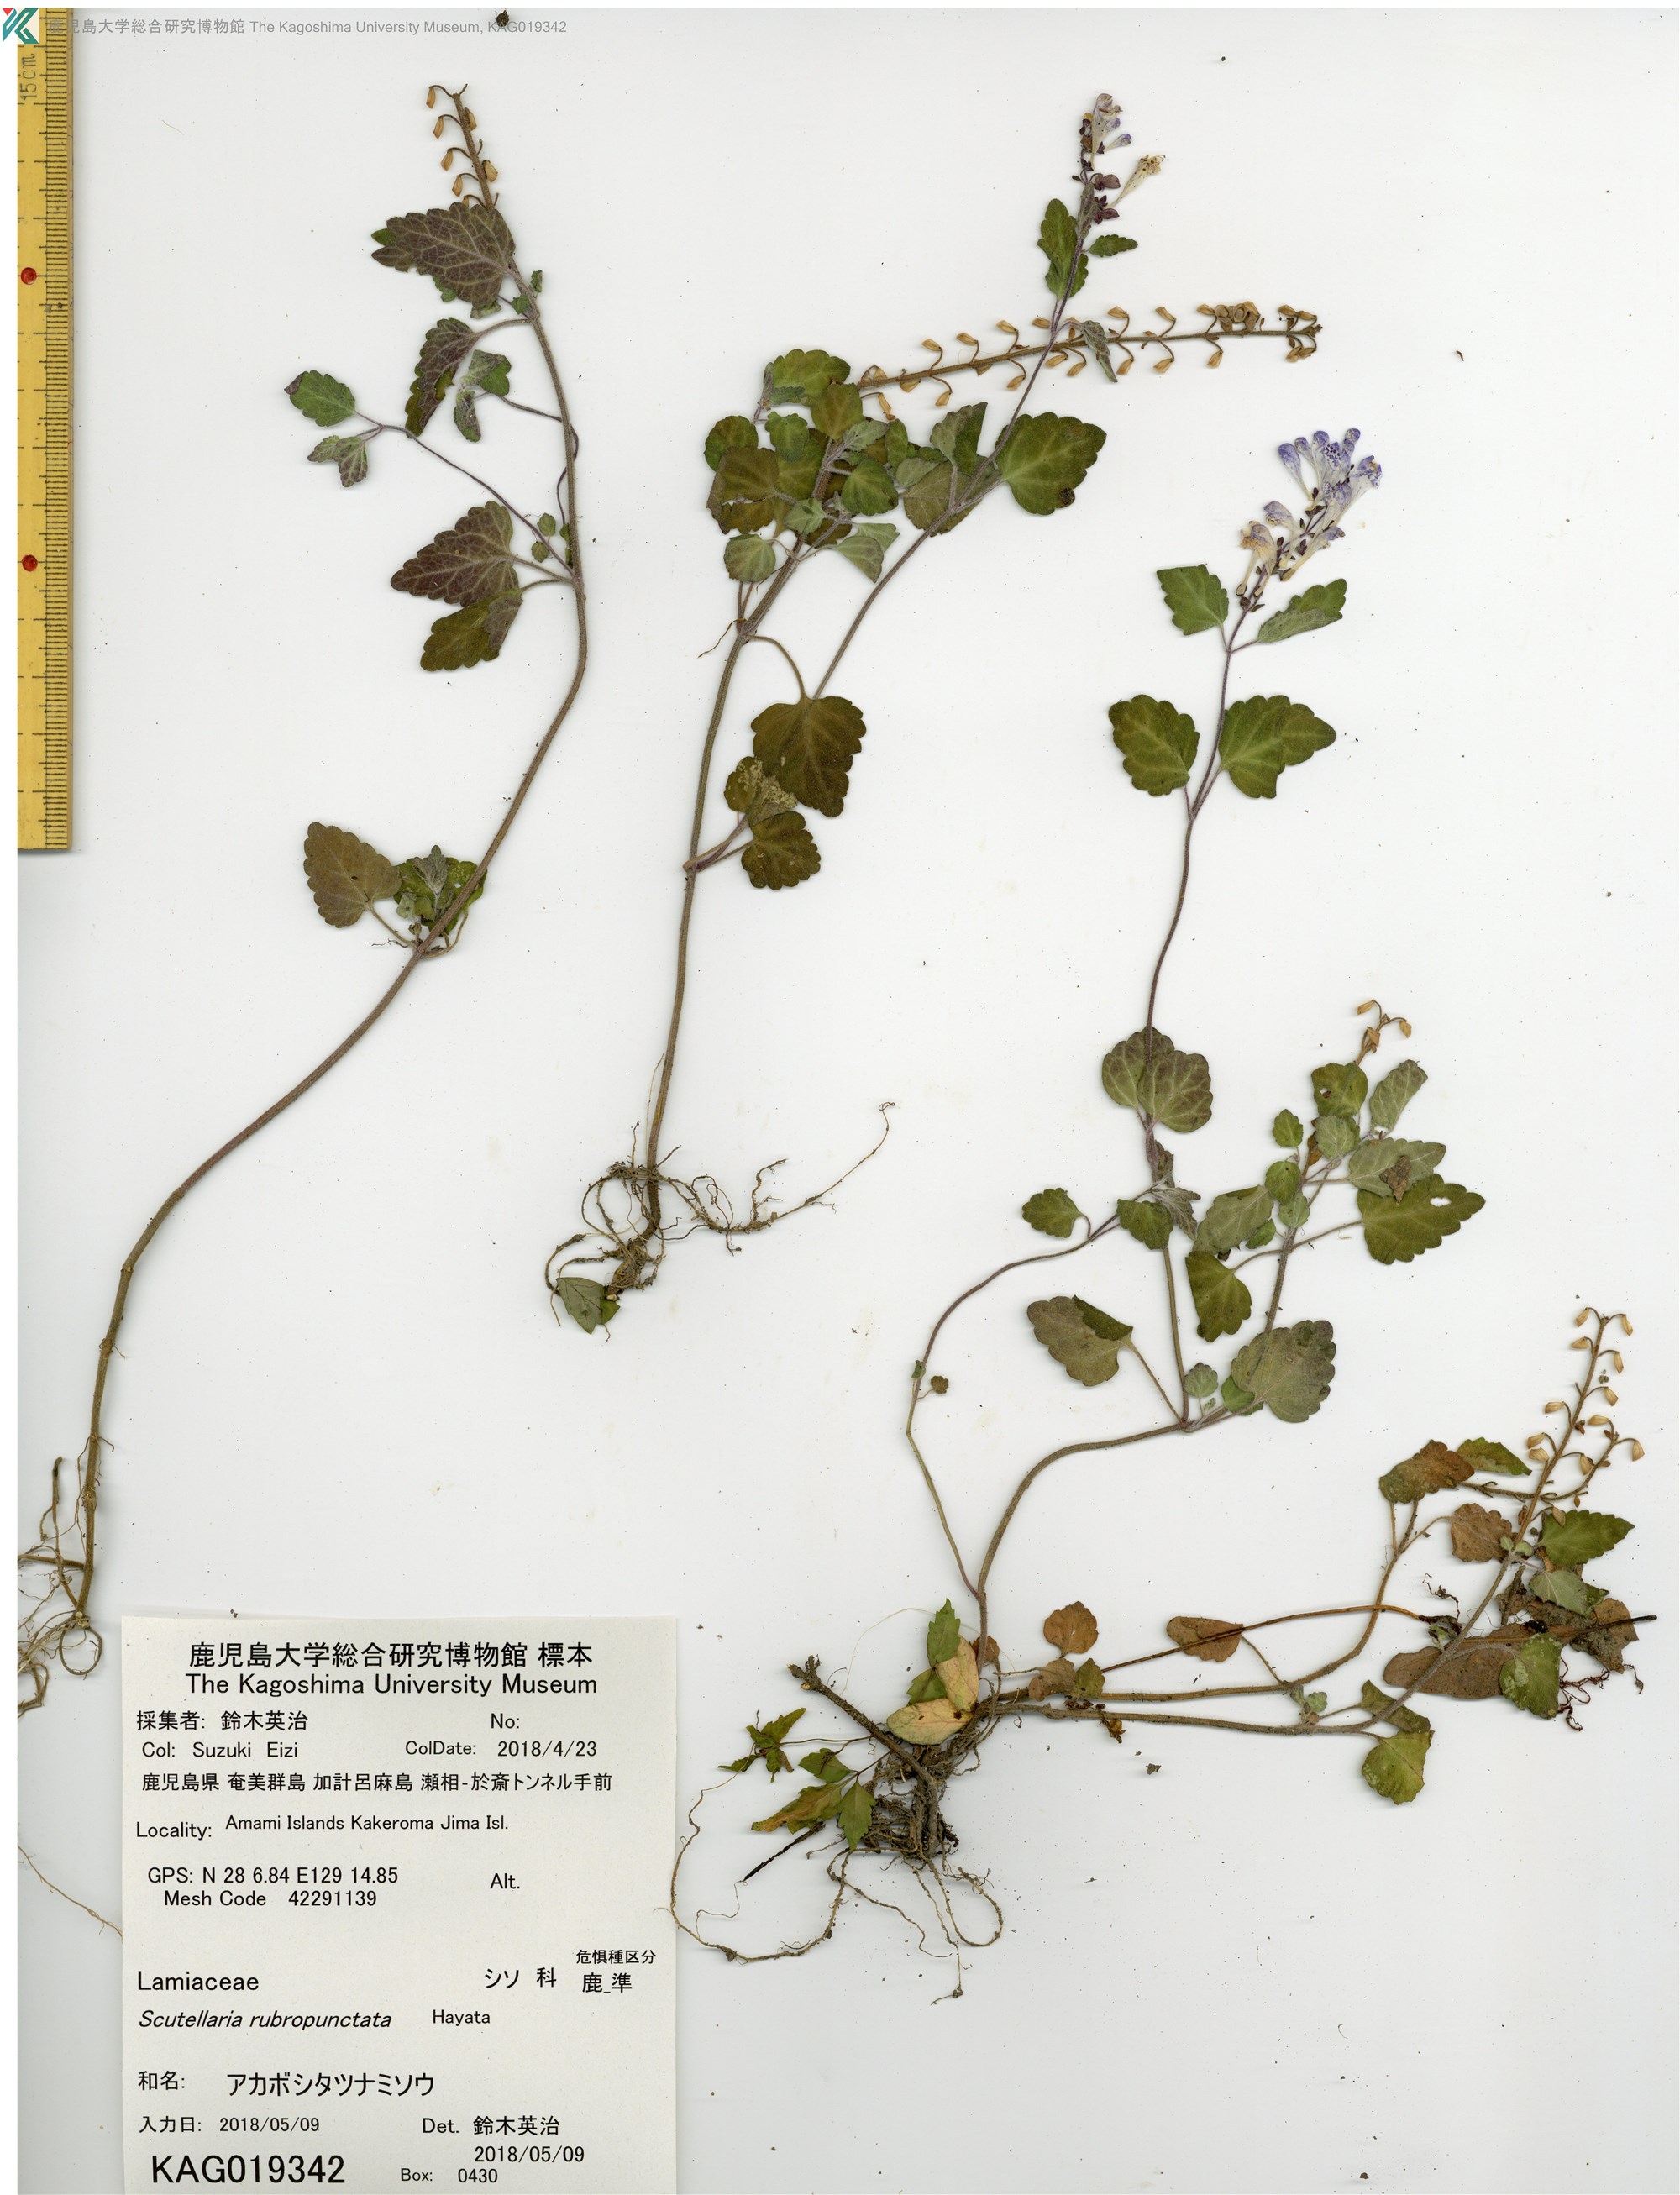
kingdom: Plantae
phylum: Tracheophyta
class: Magnoliopsida
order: Lamiales
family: Lamiaceae
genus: Scutellaria
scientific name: Scutellaria rubropunctata
